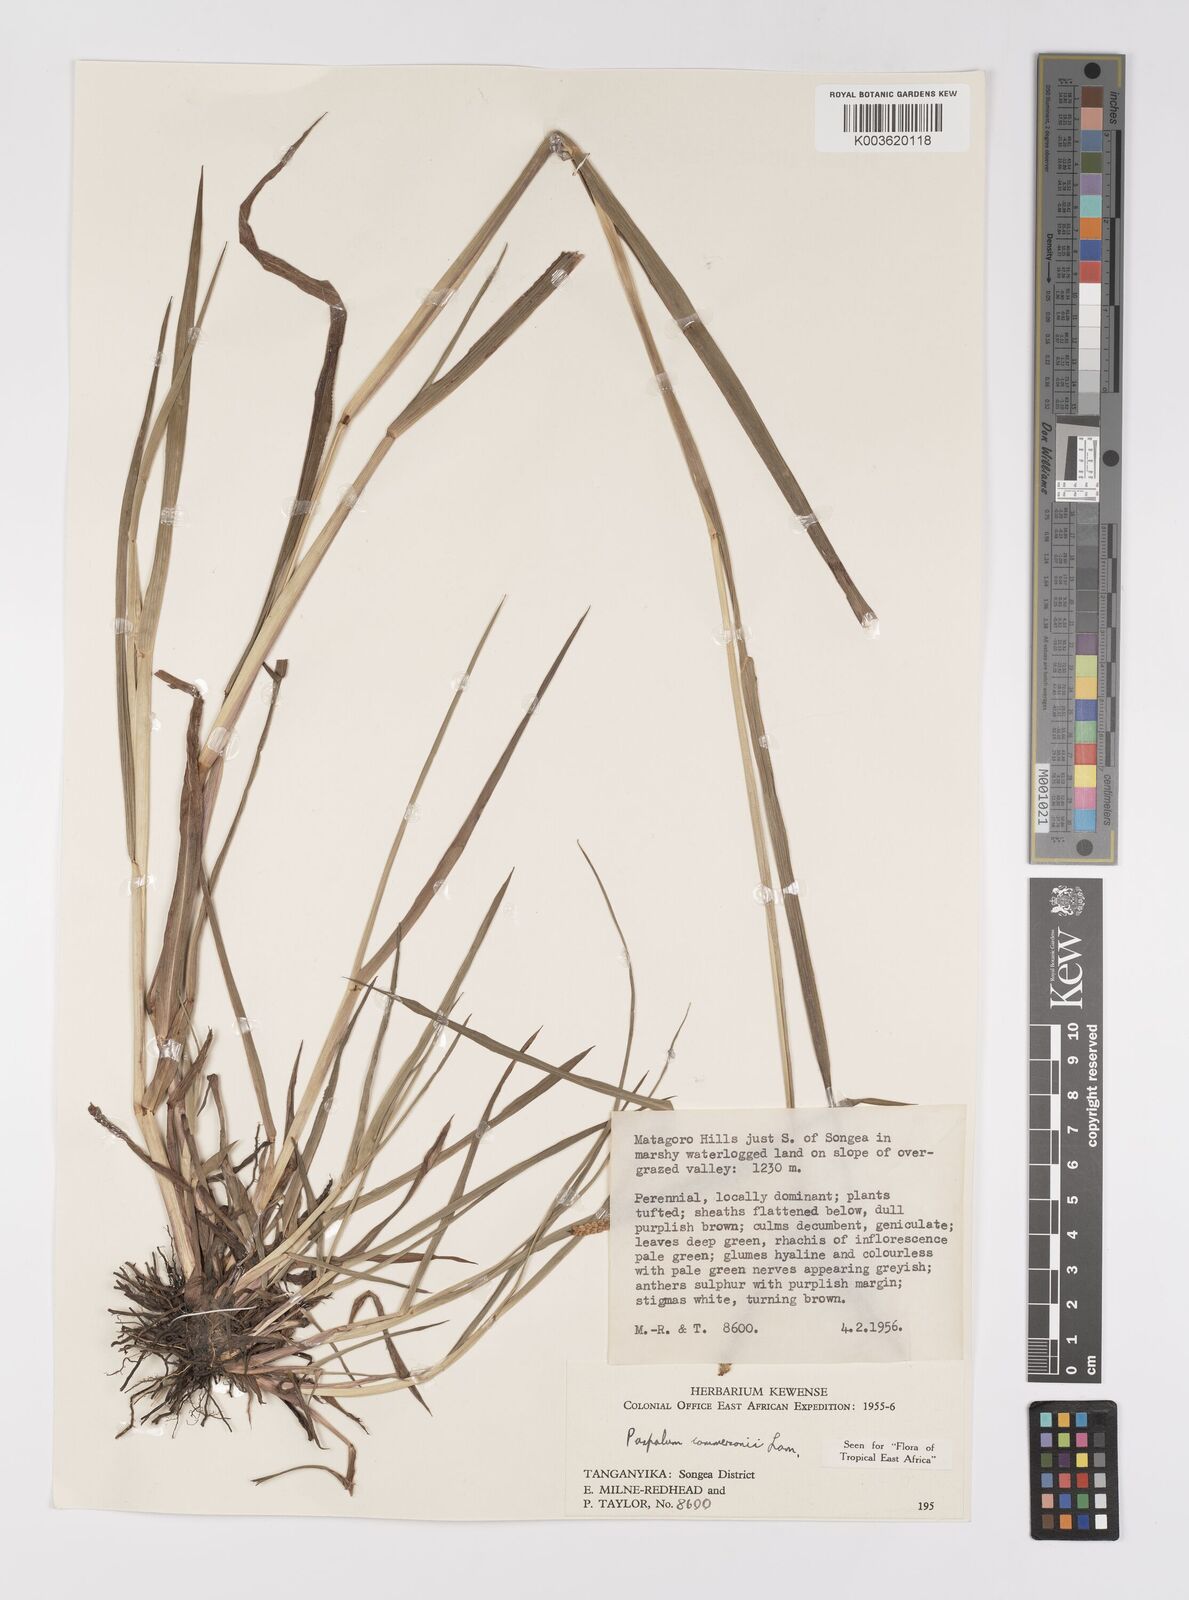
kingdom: Plantae
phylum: Tracheophyta
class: Liliopsida
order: Poales
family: Poaceae
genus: Paspalum
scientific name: Paspalum scrobiculatum
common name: Kodo millet
